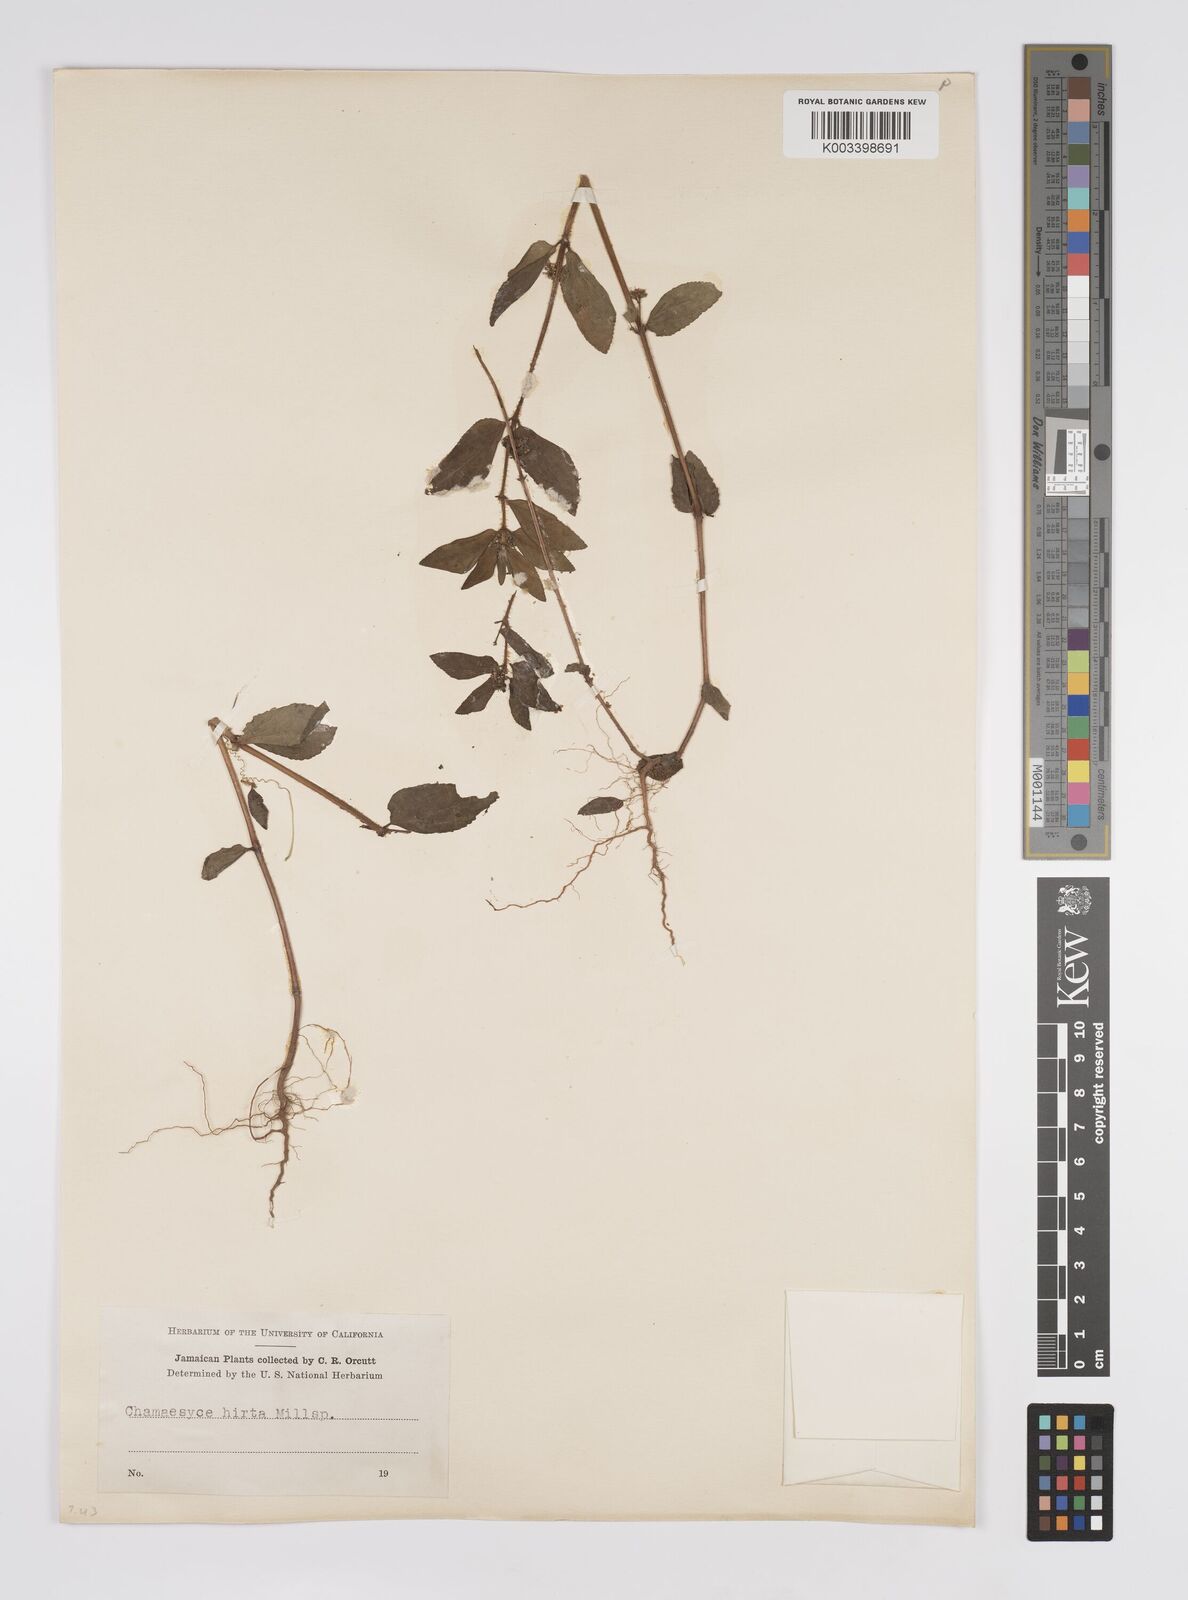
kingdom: Plantae
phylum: Tracheophyta
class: Magnoliopsida
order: Malpighiales
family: Euphorbiaceae
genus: Euphorbia
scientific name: Euphorbia hirta
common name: Pillpod sandmat
